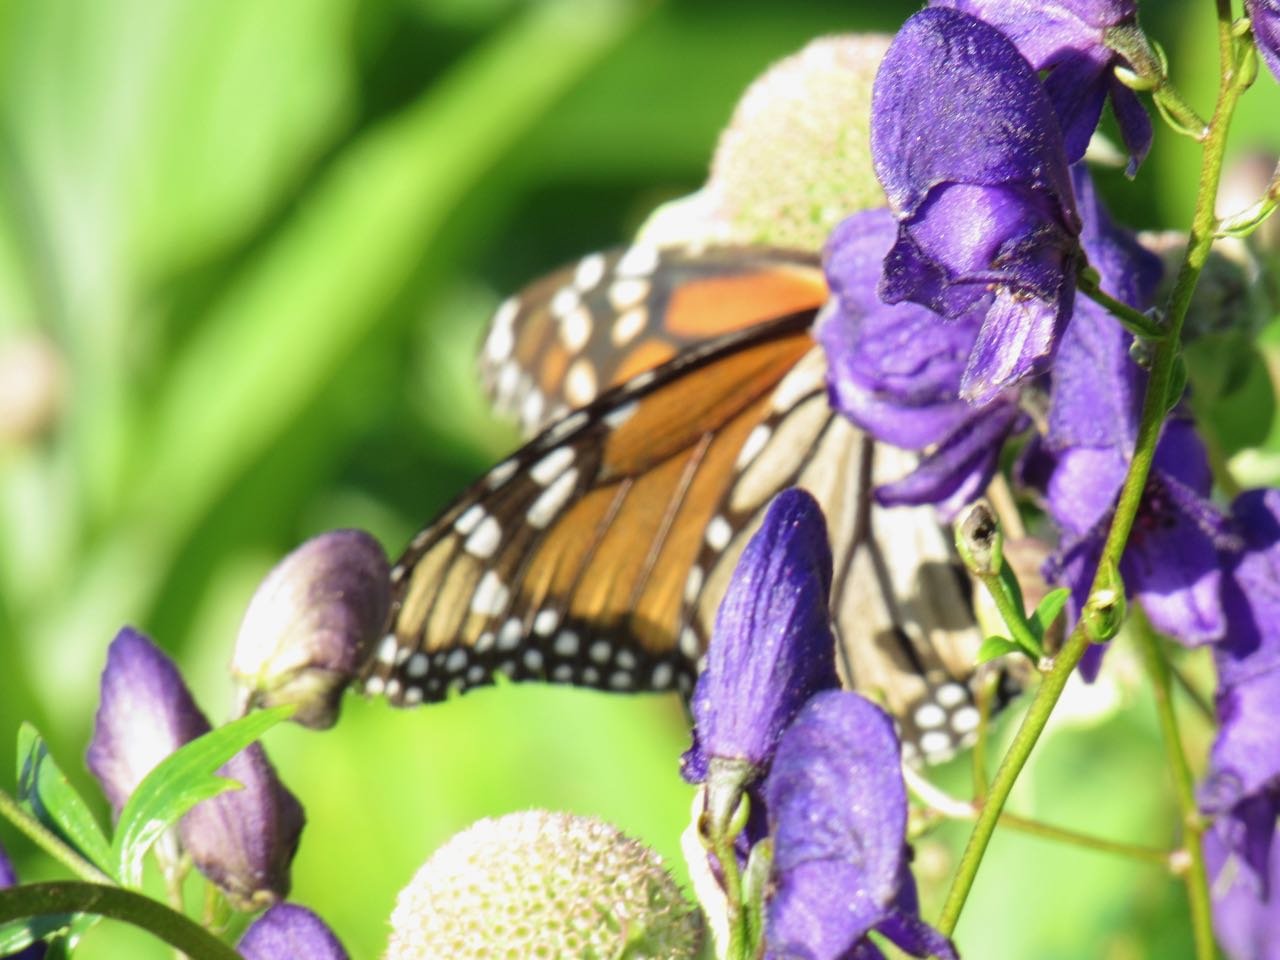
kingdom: Animalia
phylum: Arthropoda
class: Insecta
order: Lepidoptera
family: Nymphalidae
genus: Danaus
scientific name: Danaus plexippus
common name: Monarch
